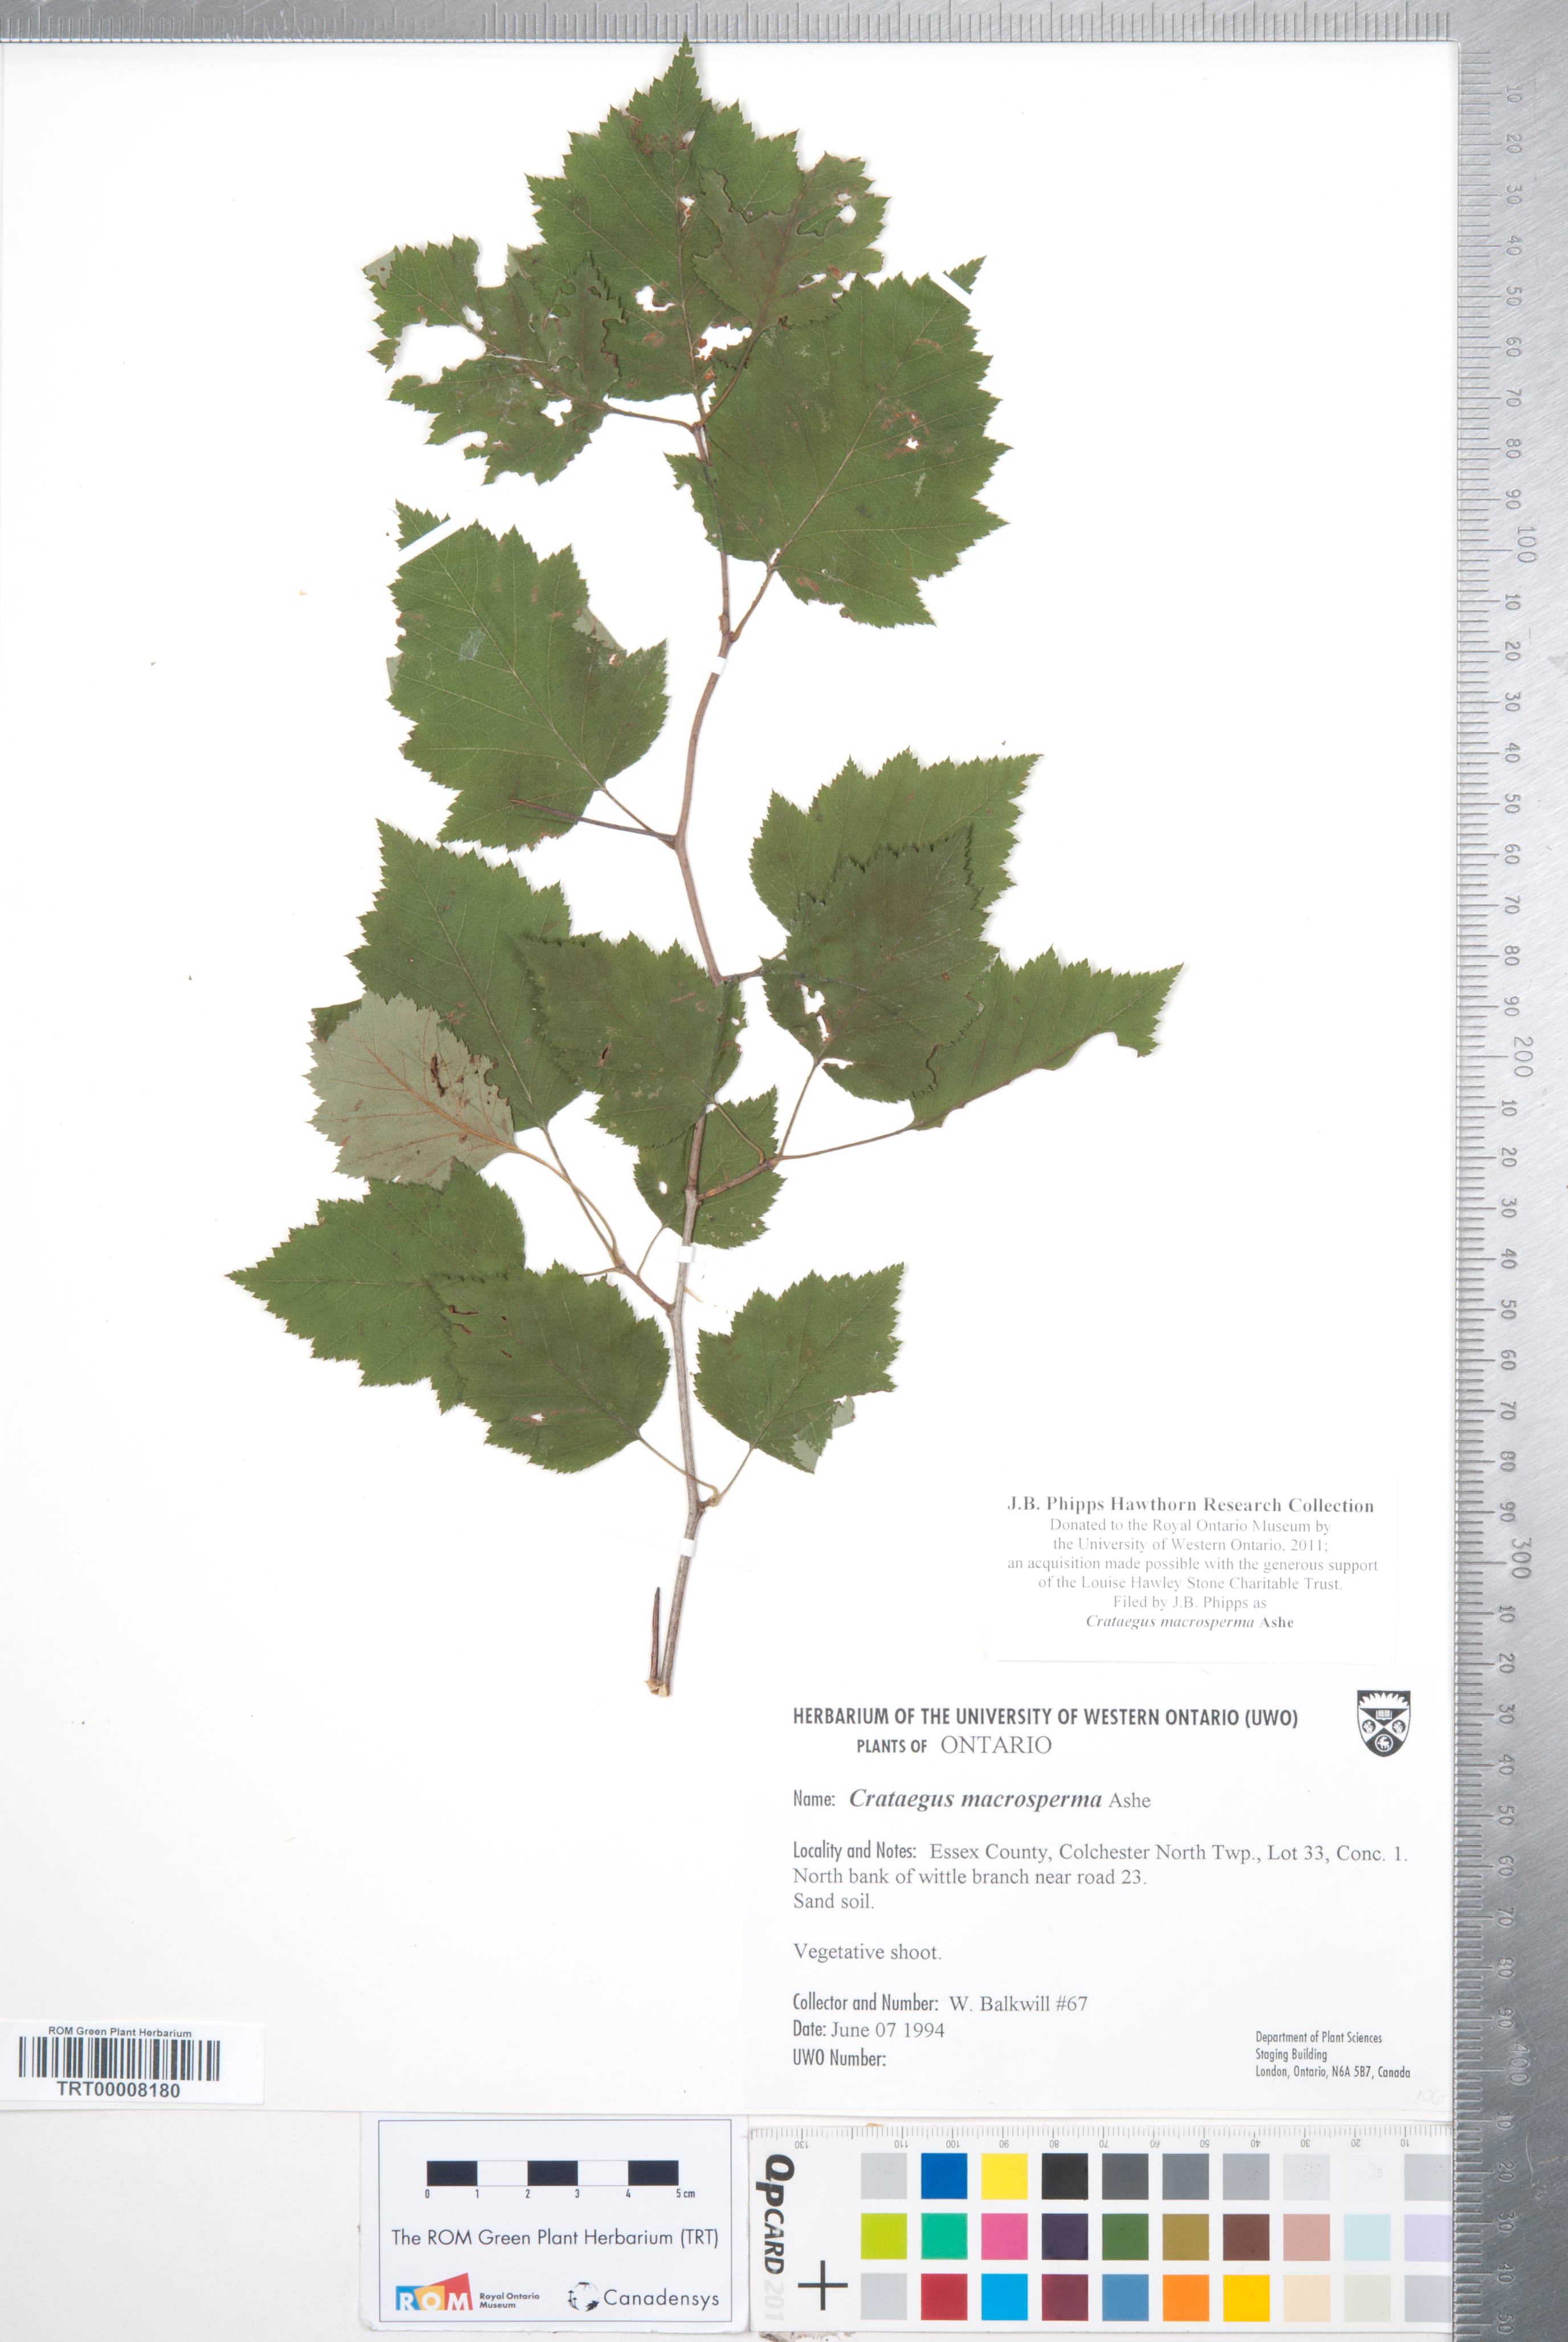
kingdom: Plantae
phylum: Tracheophyta
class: Magnoliopsida
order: Rosales
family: Rosaceae
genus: Crataegus
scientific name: Crataegus macrosperma
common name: Variable hawthorn
